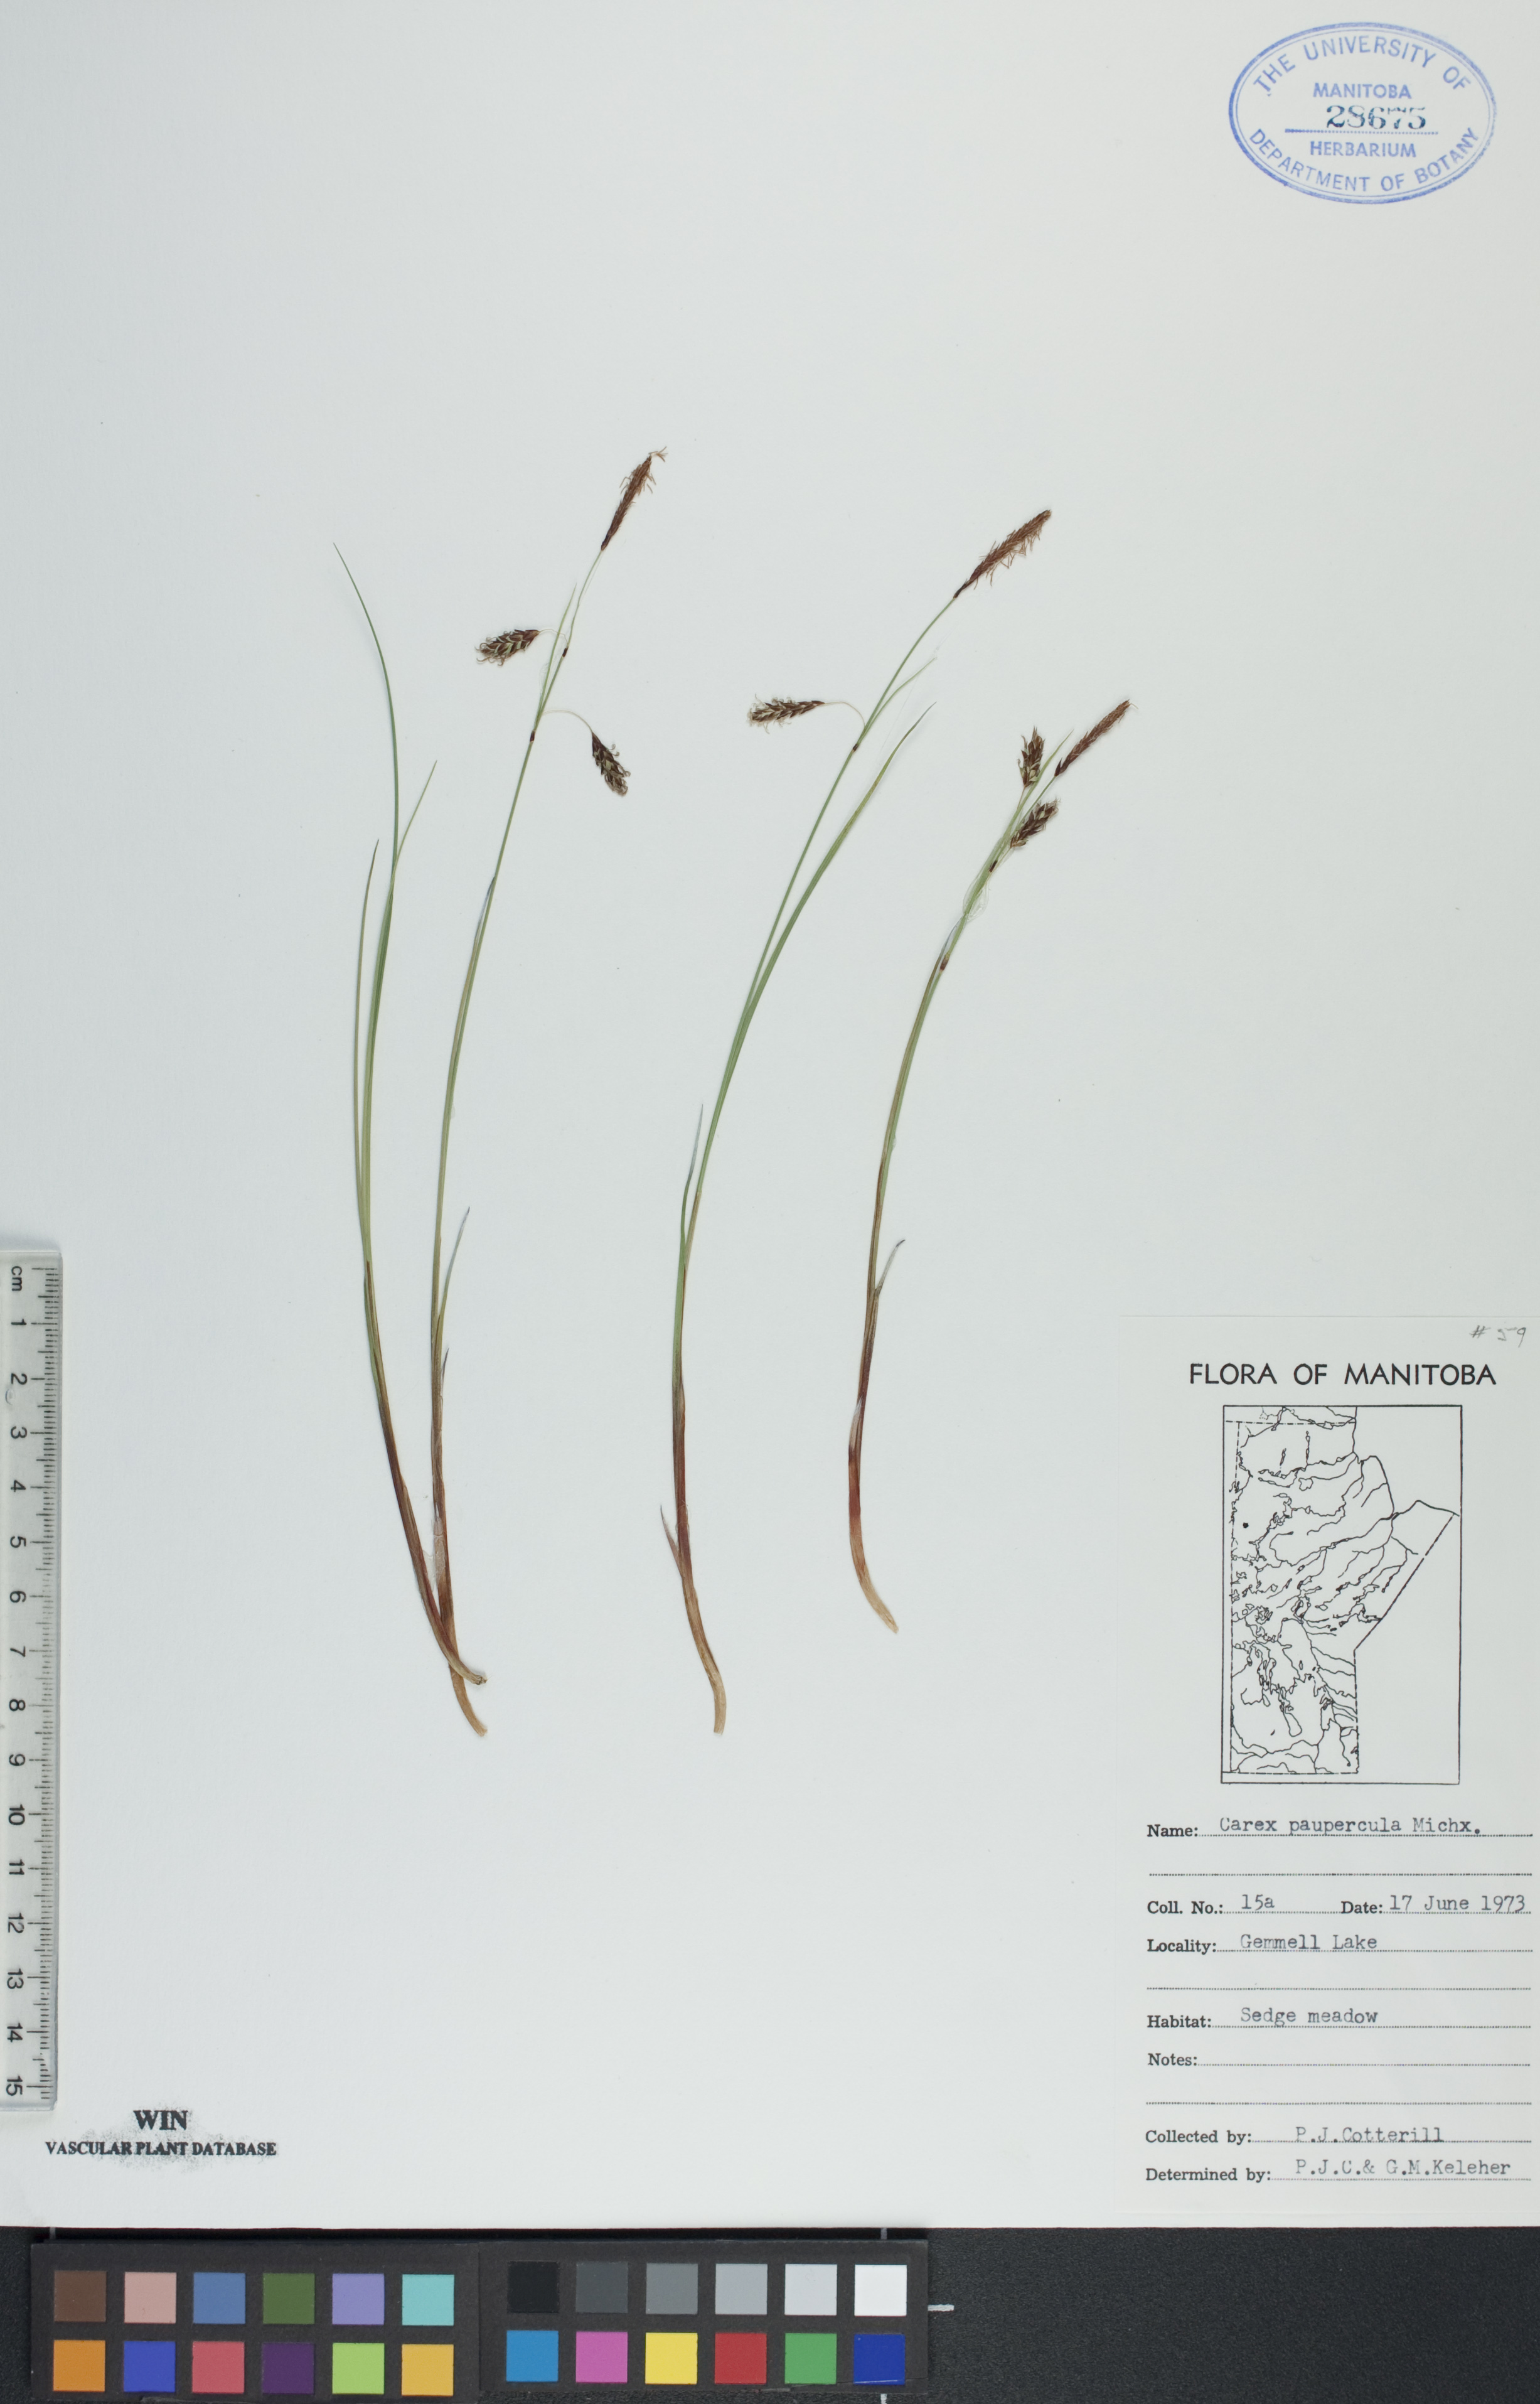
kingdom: Plantae
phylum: Tracheophyta
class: Liliopsida
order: Poales
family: Cyperaceae
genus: Carex
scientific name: Carex magellanica
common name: Bog sedge
